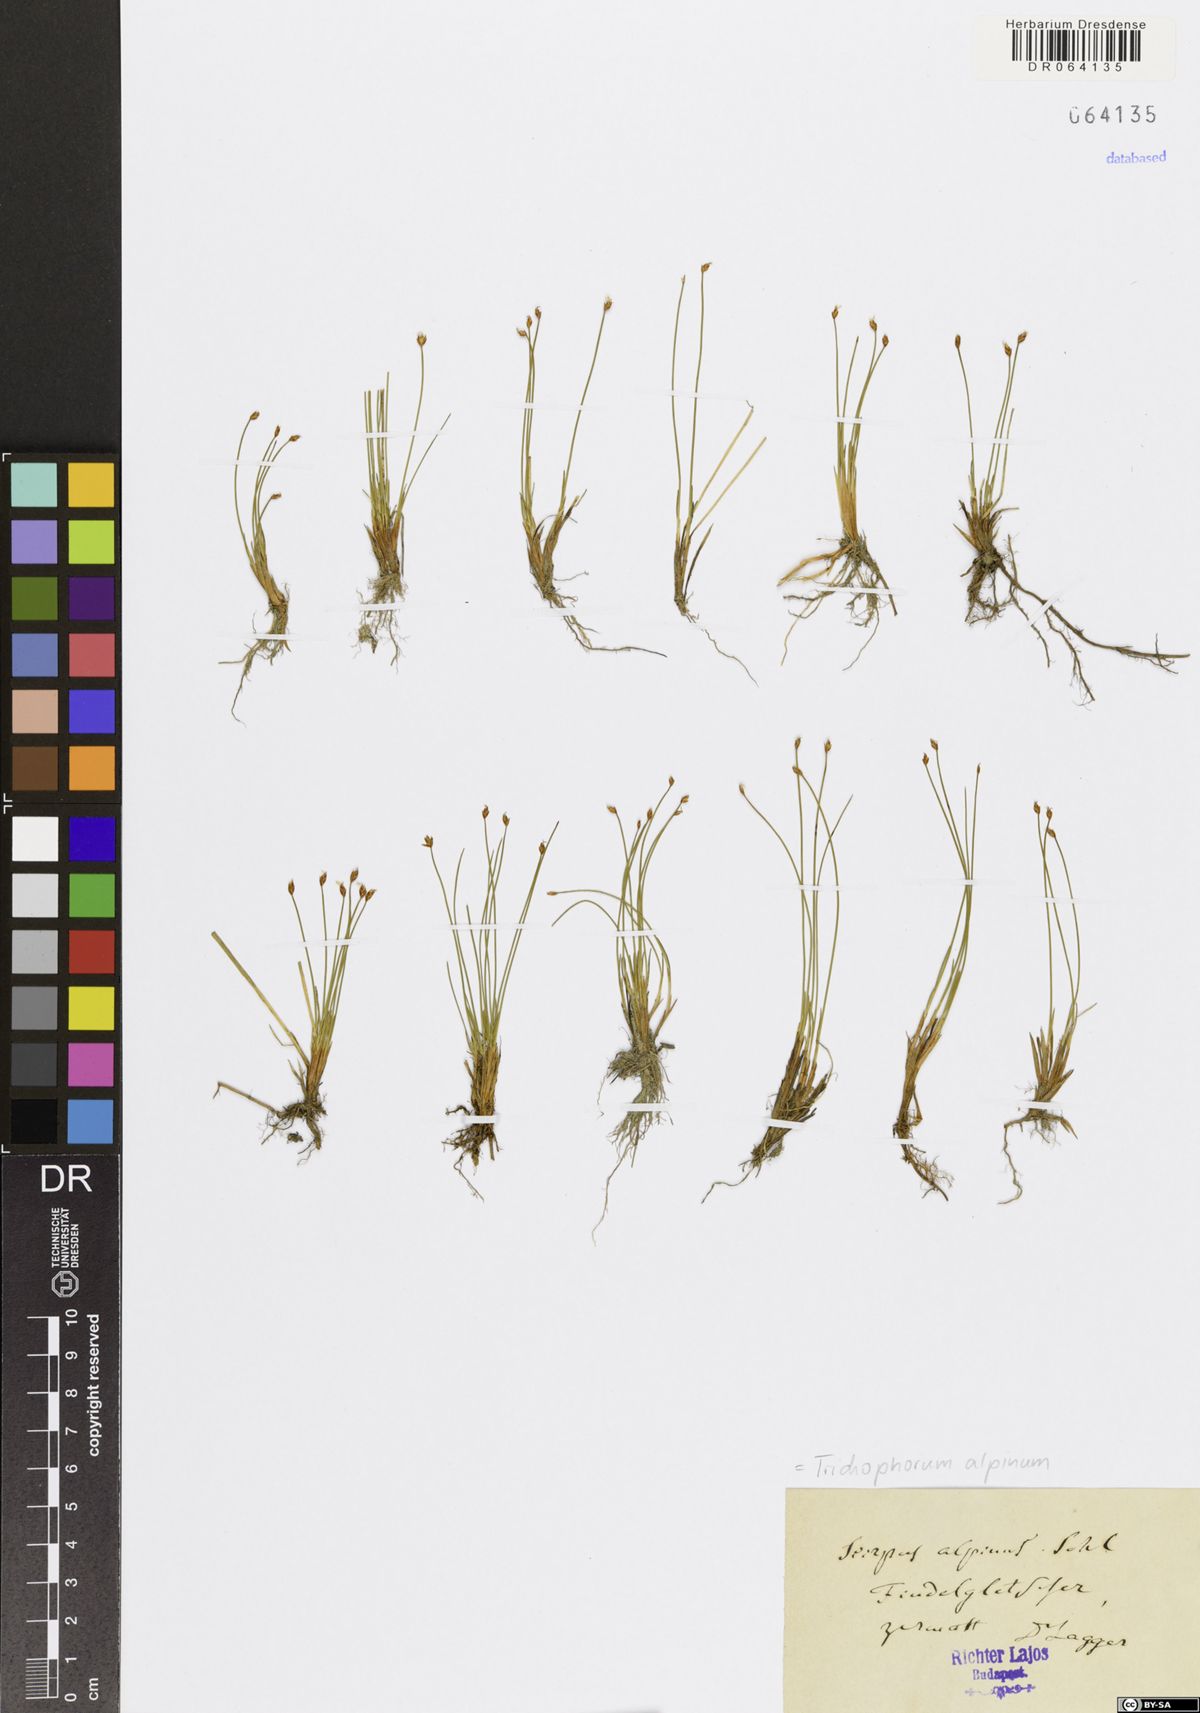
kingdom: Plantae
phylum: Tracheophyta
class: Liliopsida
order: Poales
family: Cyperaceae
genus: Trichophorum
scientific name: Trichophorum alpinum
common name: Alpine bulrush
